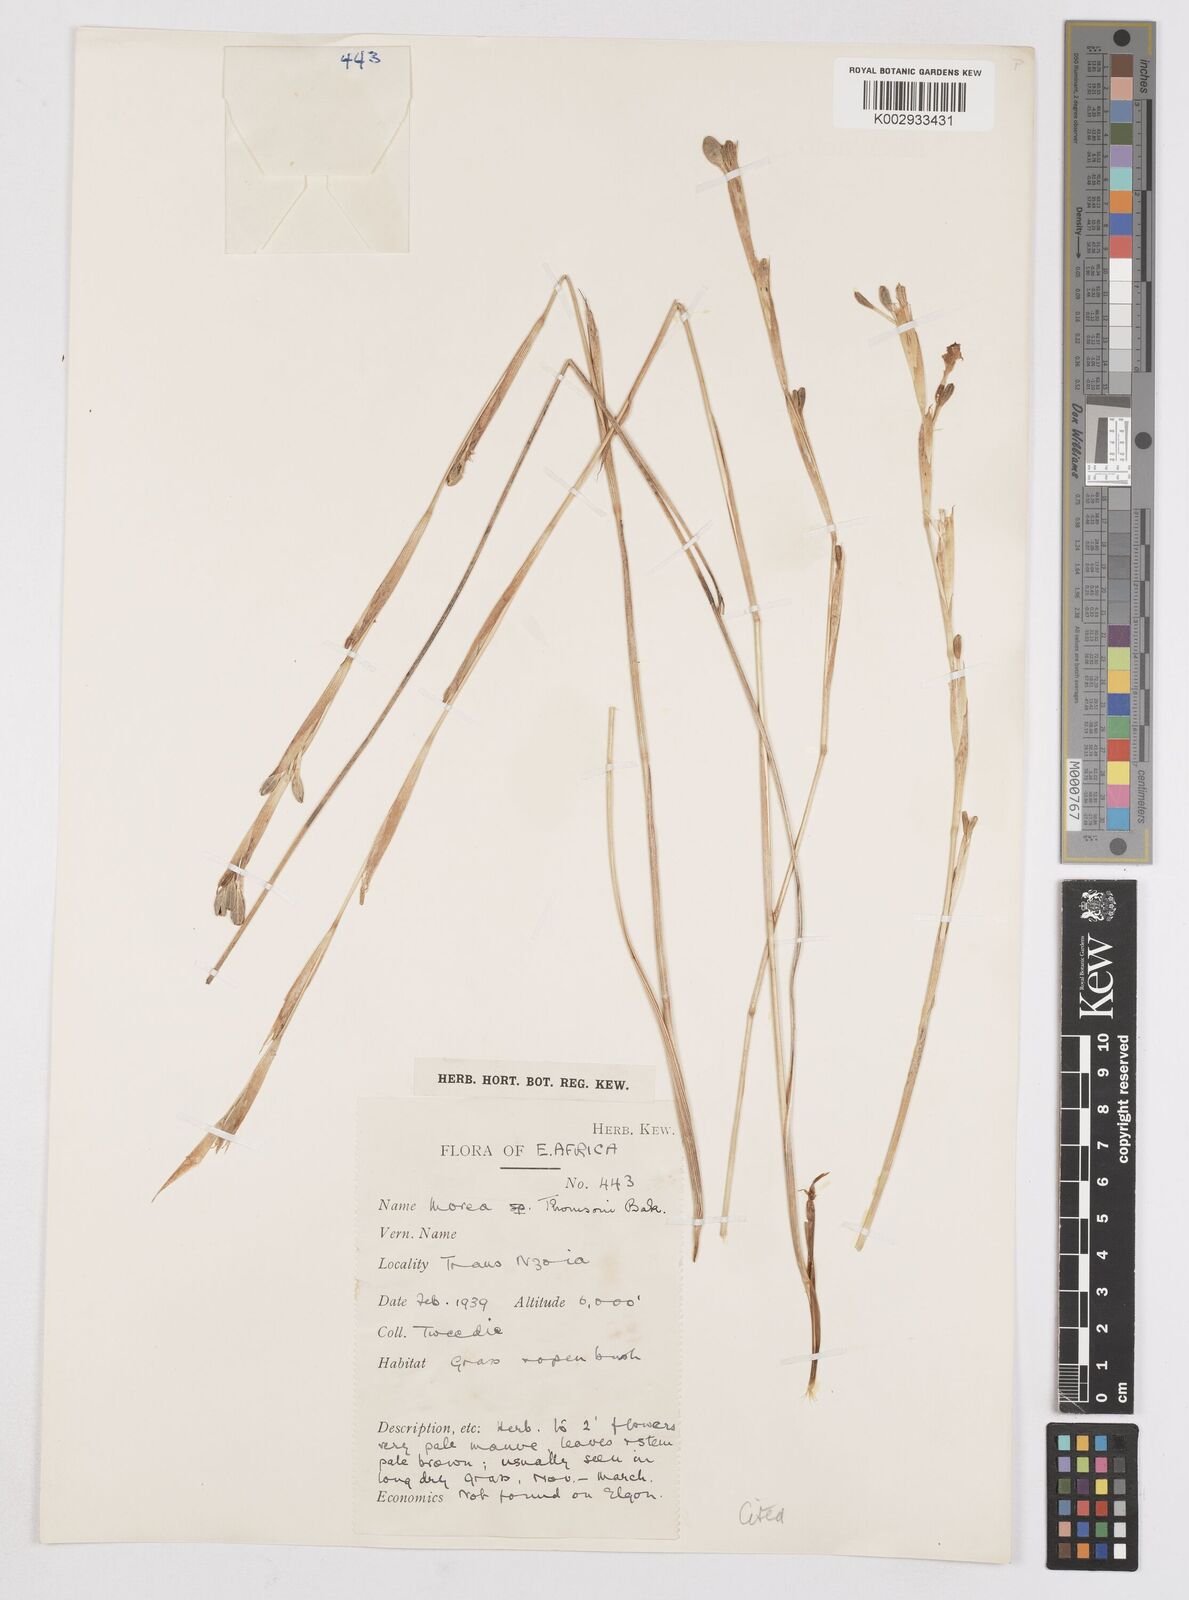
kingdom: Plantae
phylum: Tracheophyta
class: Liliopsida
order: Asparagales
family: Iridaceae
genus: Moraea
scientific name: Moraea thomsonii
